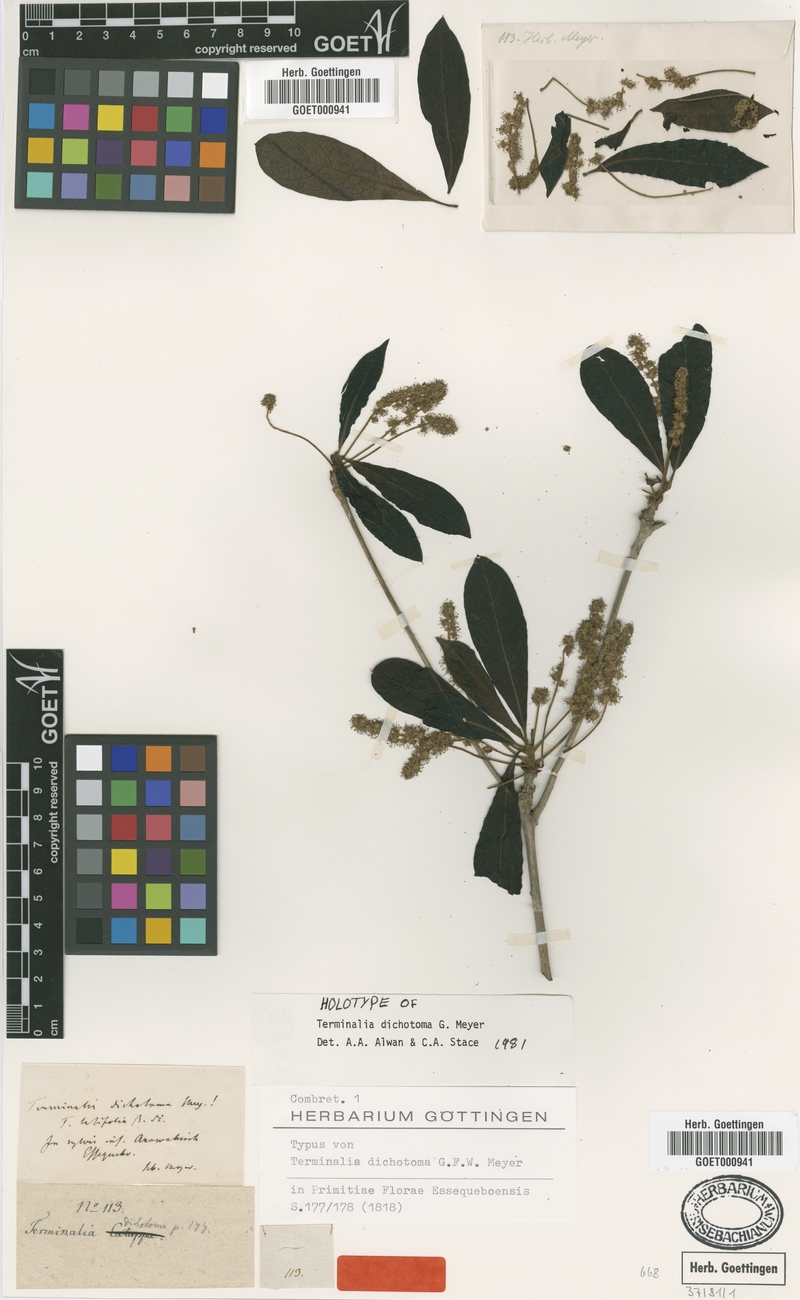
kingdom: Plantae
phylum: Tracheophyta
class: Magnoliopsida
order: Myrtales
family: Combretaceae
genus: Terminalia
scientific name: Terminalia dichotoma
